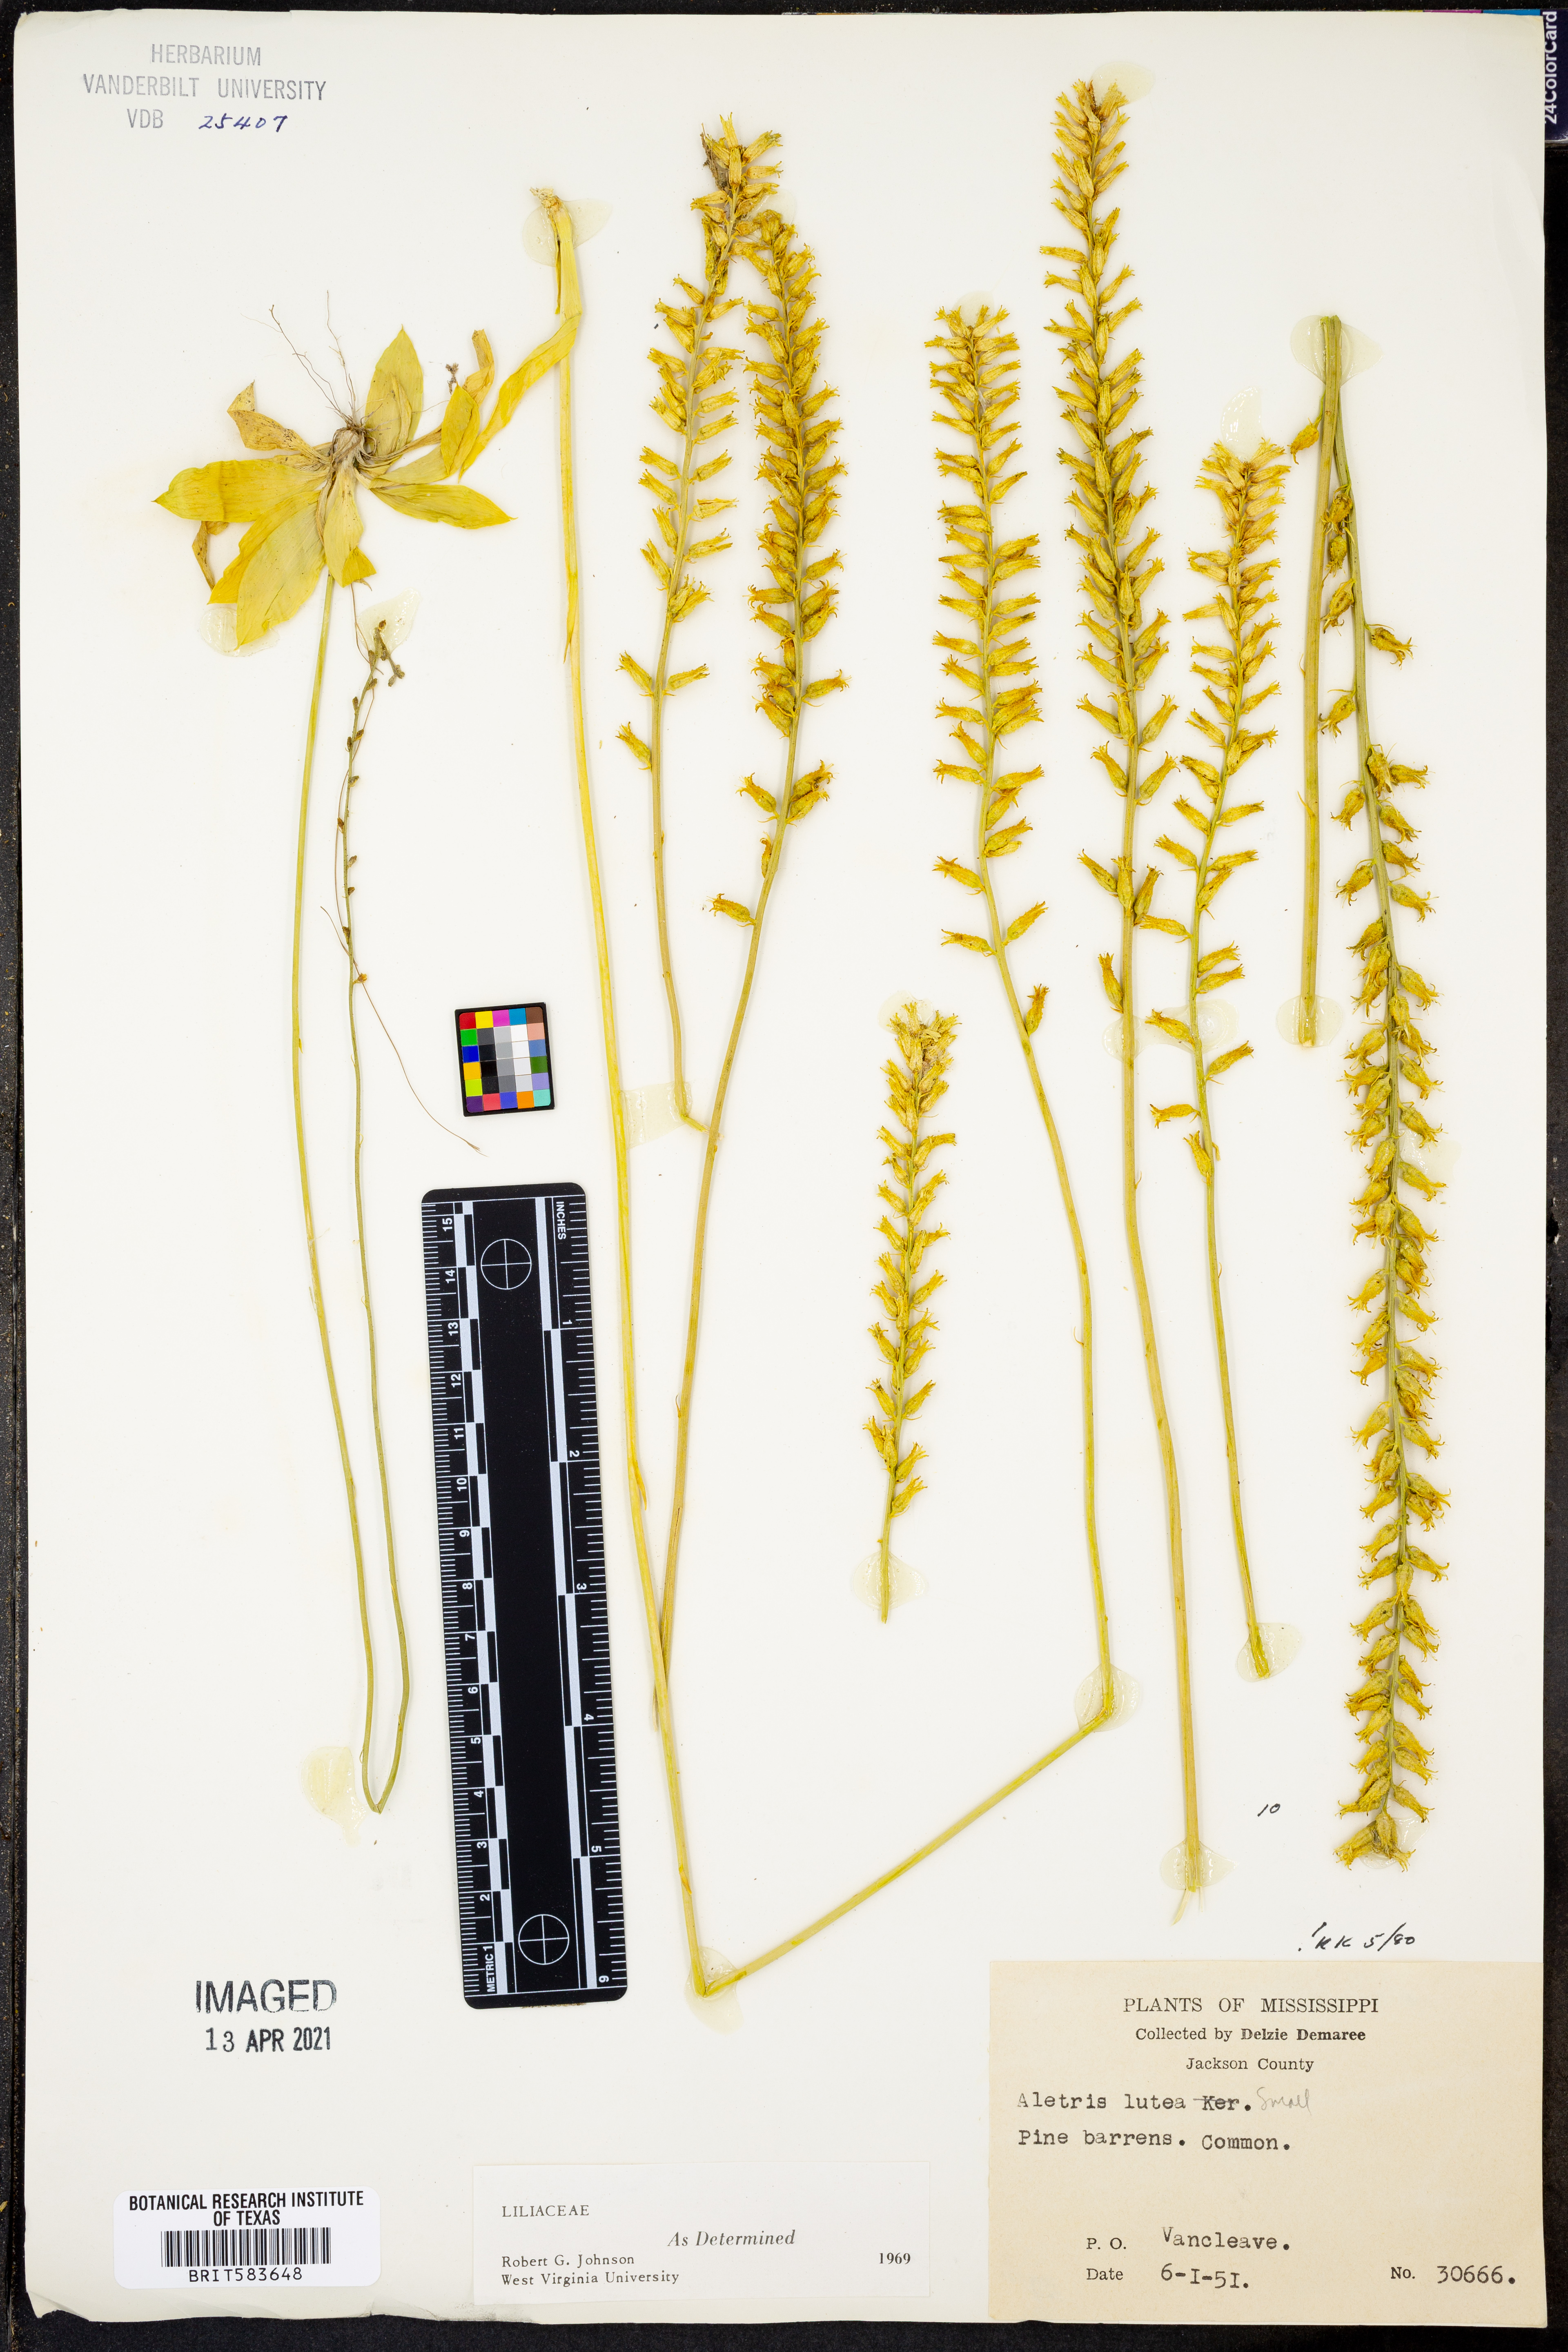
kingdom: Plantae
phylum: Tracheophyta
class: Liliopsida
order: Dioscoreales
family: Nartheciaceae
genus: Aletris
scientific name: Aletris lutea
